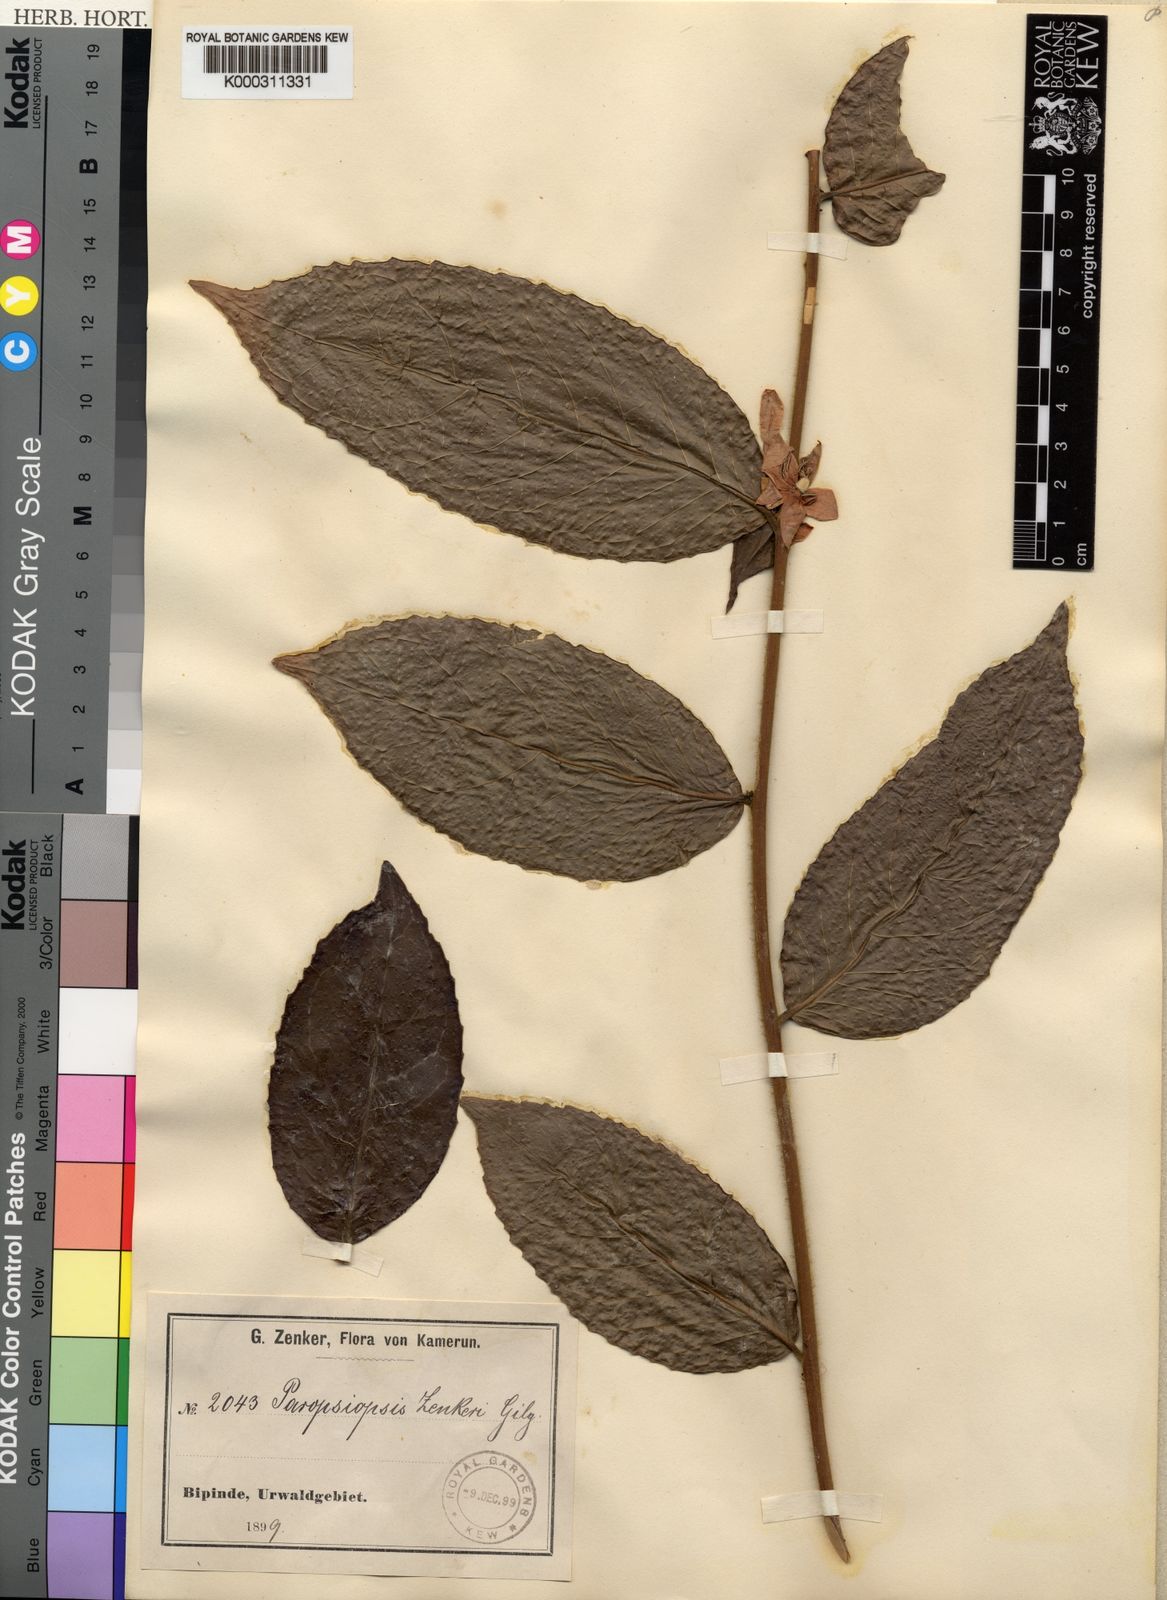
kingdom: Plantae
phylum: Tracheophyta
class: Magnoliopsida
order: Malpighiales
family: Passifloraceae
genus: Paropsiopsis
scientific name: Paropsiopsis decandra
